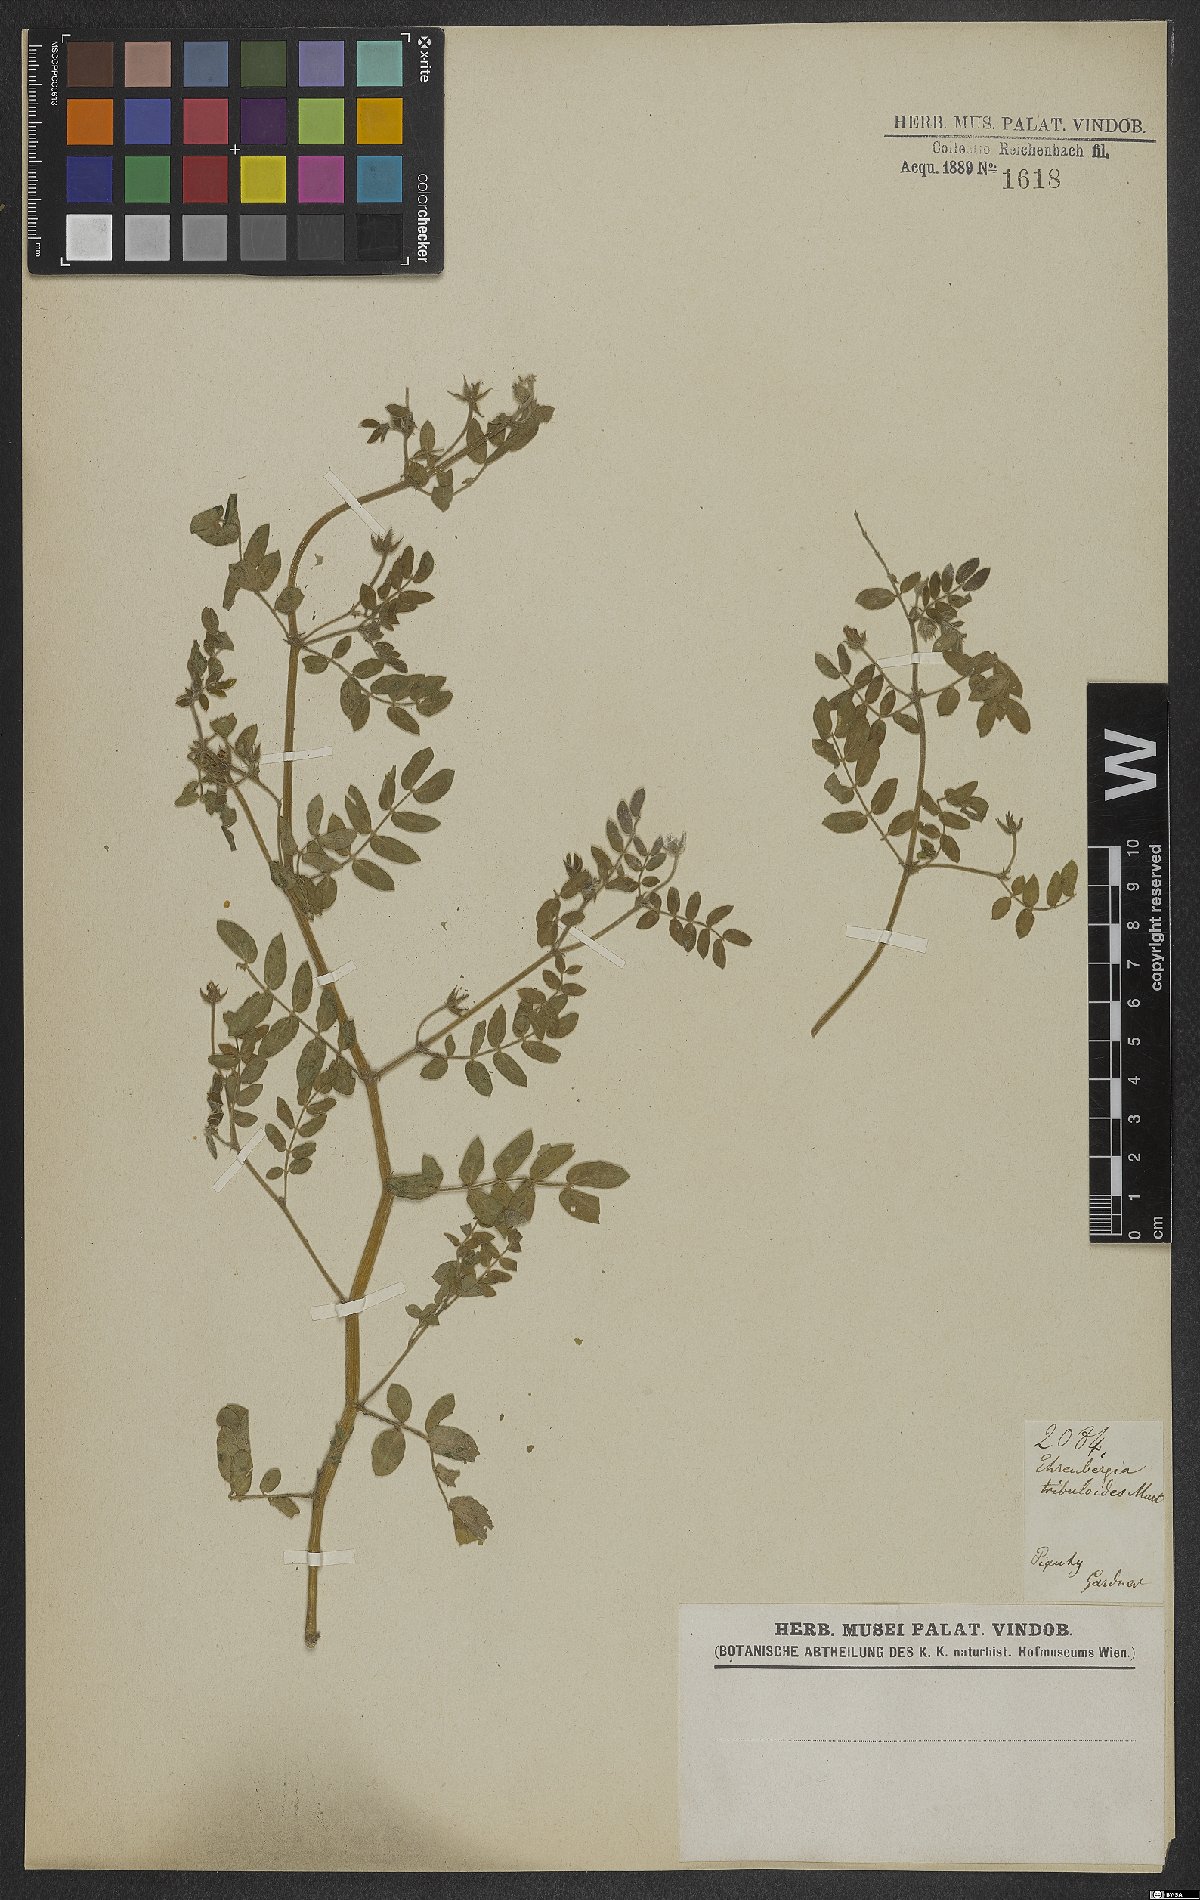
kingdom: Plantae
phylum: Tracheophyta
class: Magnoliopsida
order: Zygophyllales
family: Zygophyllaceae
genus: Kallstroemia
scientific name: Kallstroemia maxima
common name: Big caltropa
